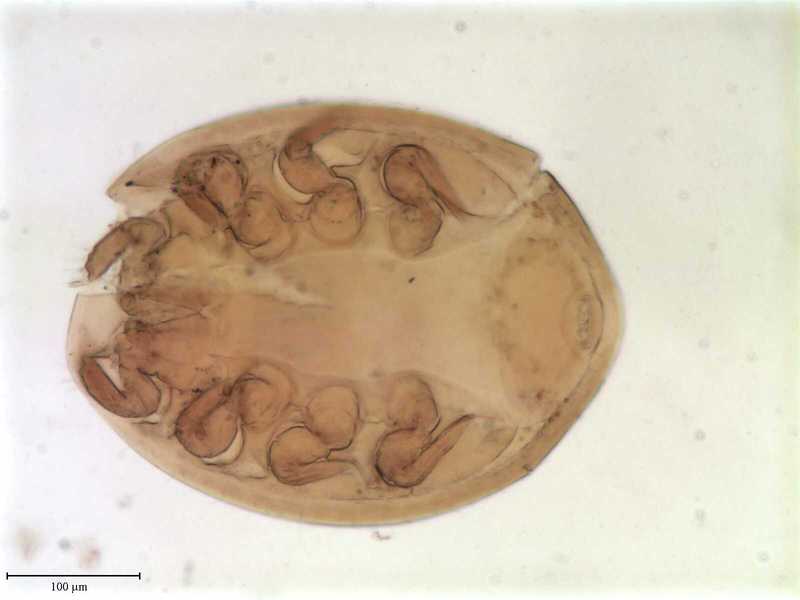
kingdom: Animalia
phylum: Arthropoda
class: Arachnida
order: Mesostigmata
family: Uropodidae
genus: Uropoda
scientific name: Uropoda
